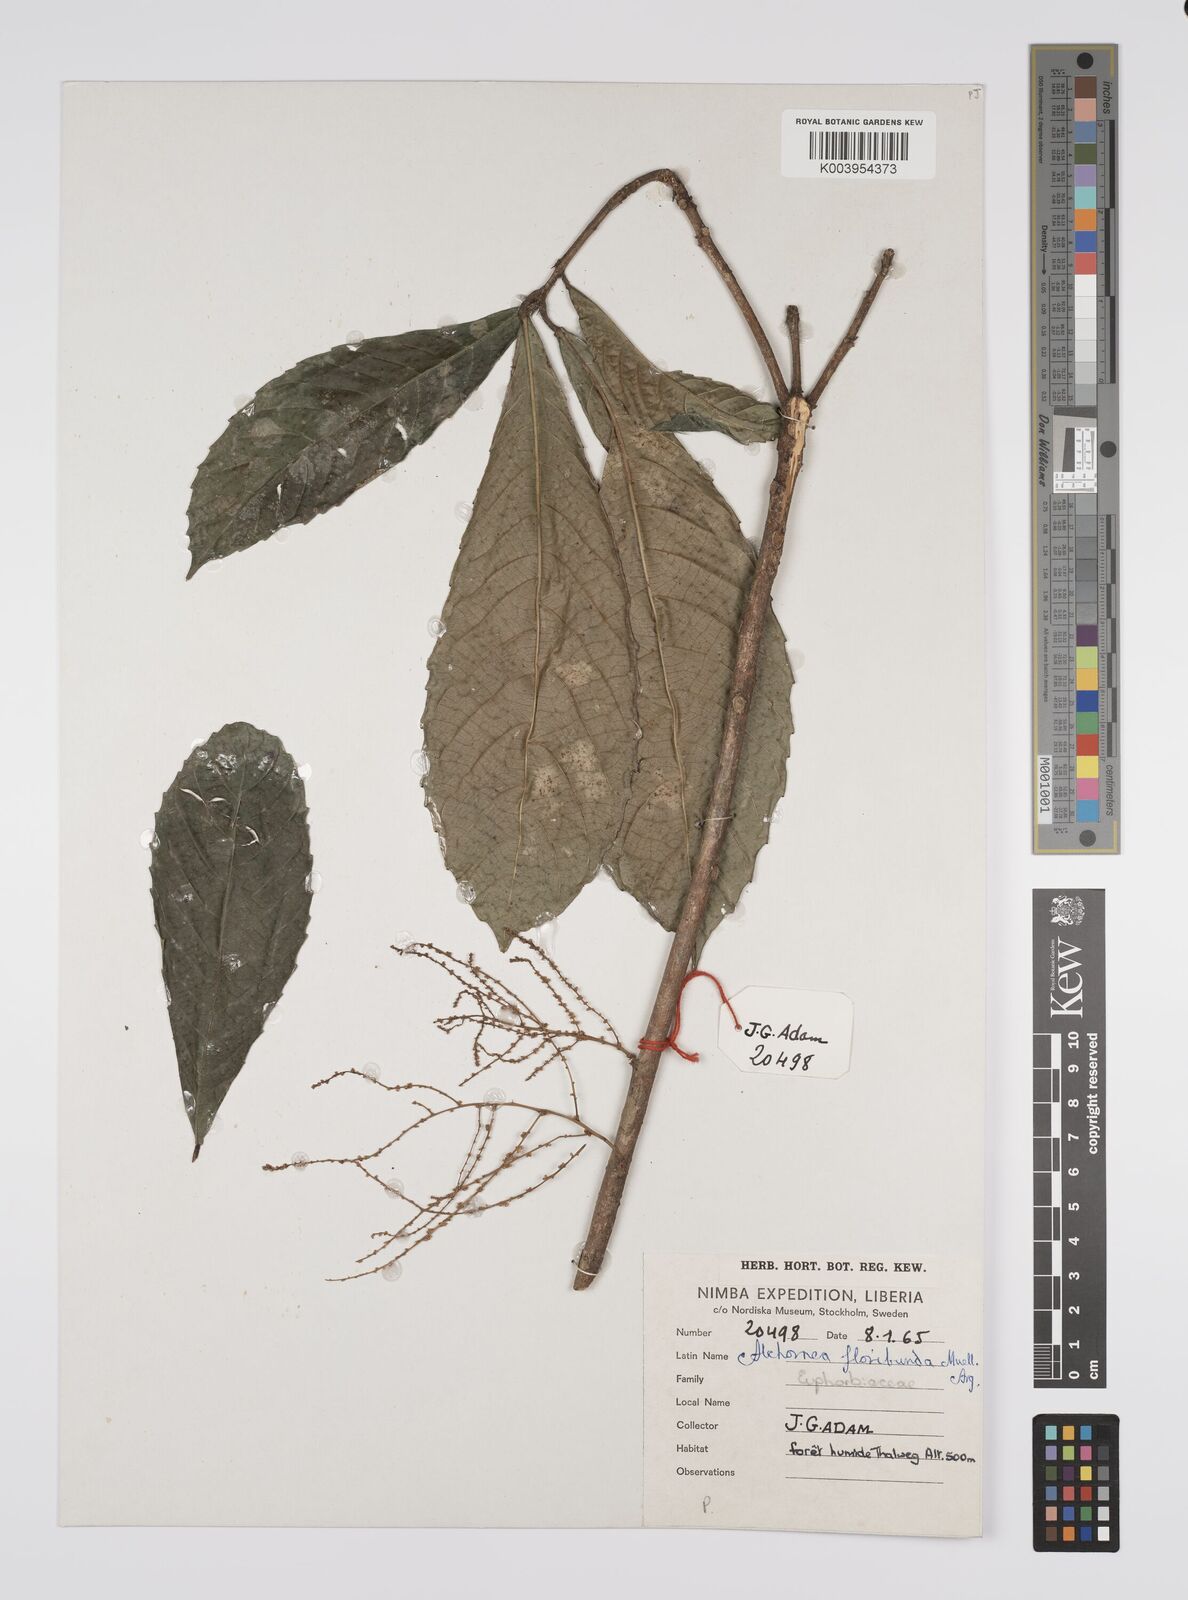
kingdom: Plantae
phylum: Tracheophyta
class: Magnoliopsida
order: Malpighiales
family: Euphorbiaceae
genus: Alchornea
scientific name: Alchornea floribunda
